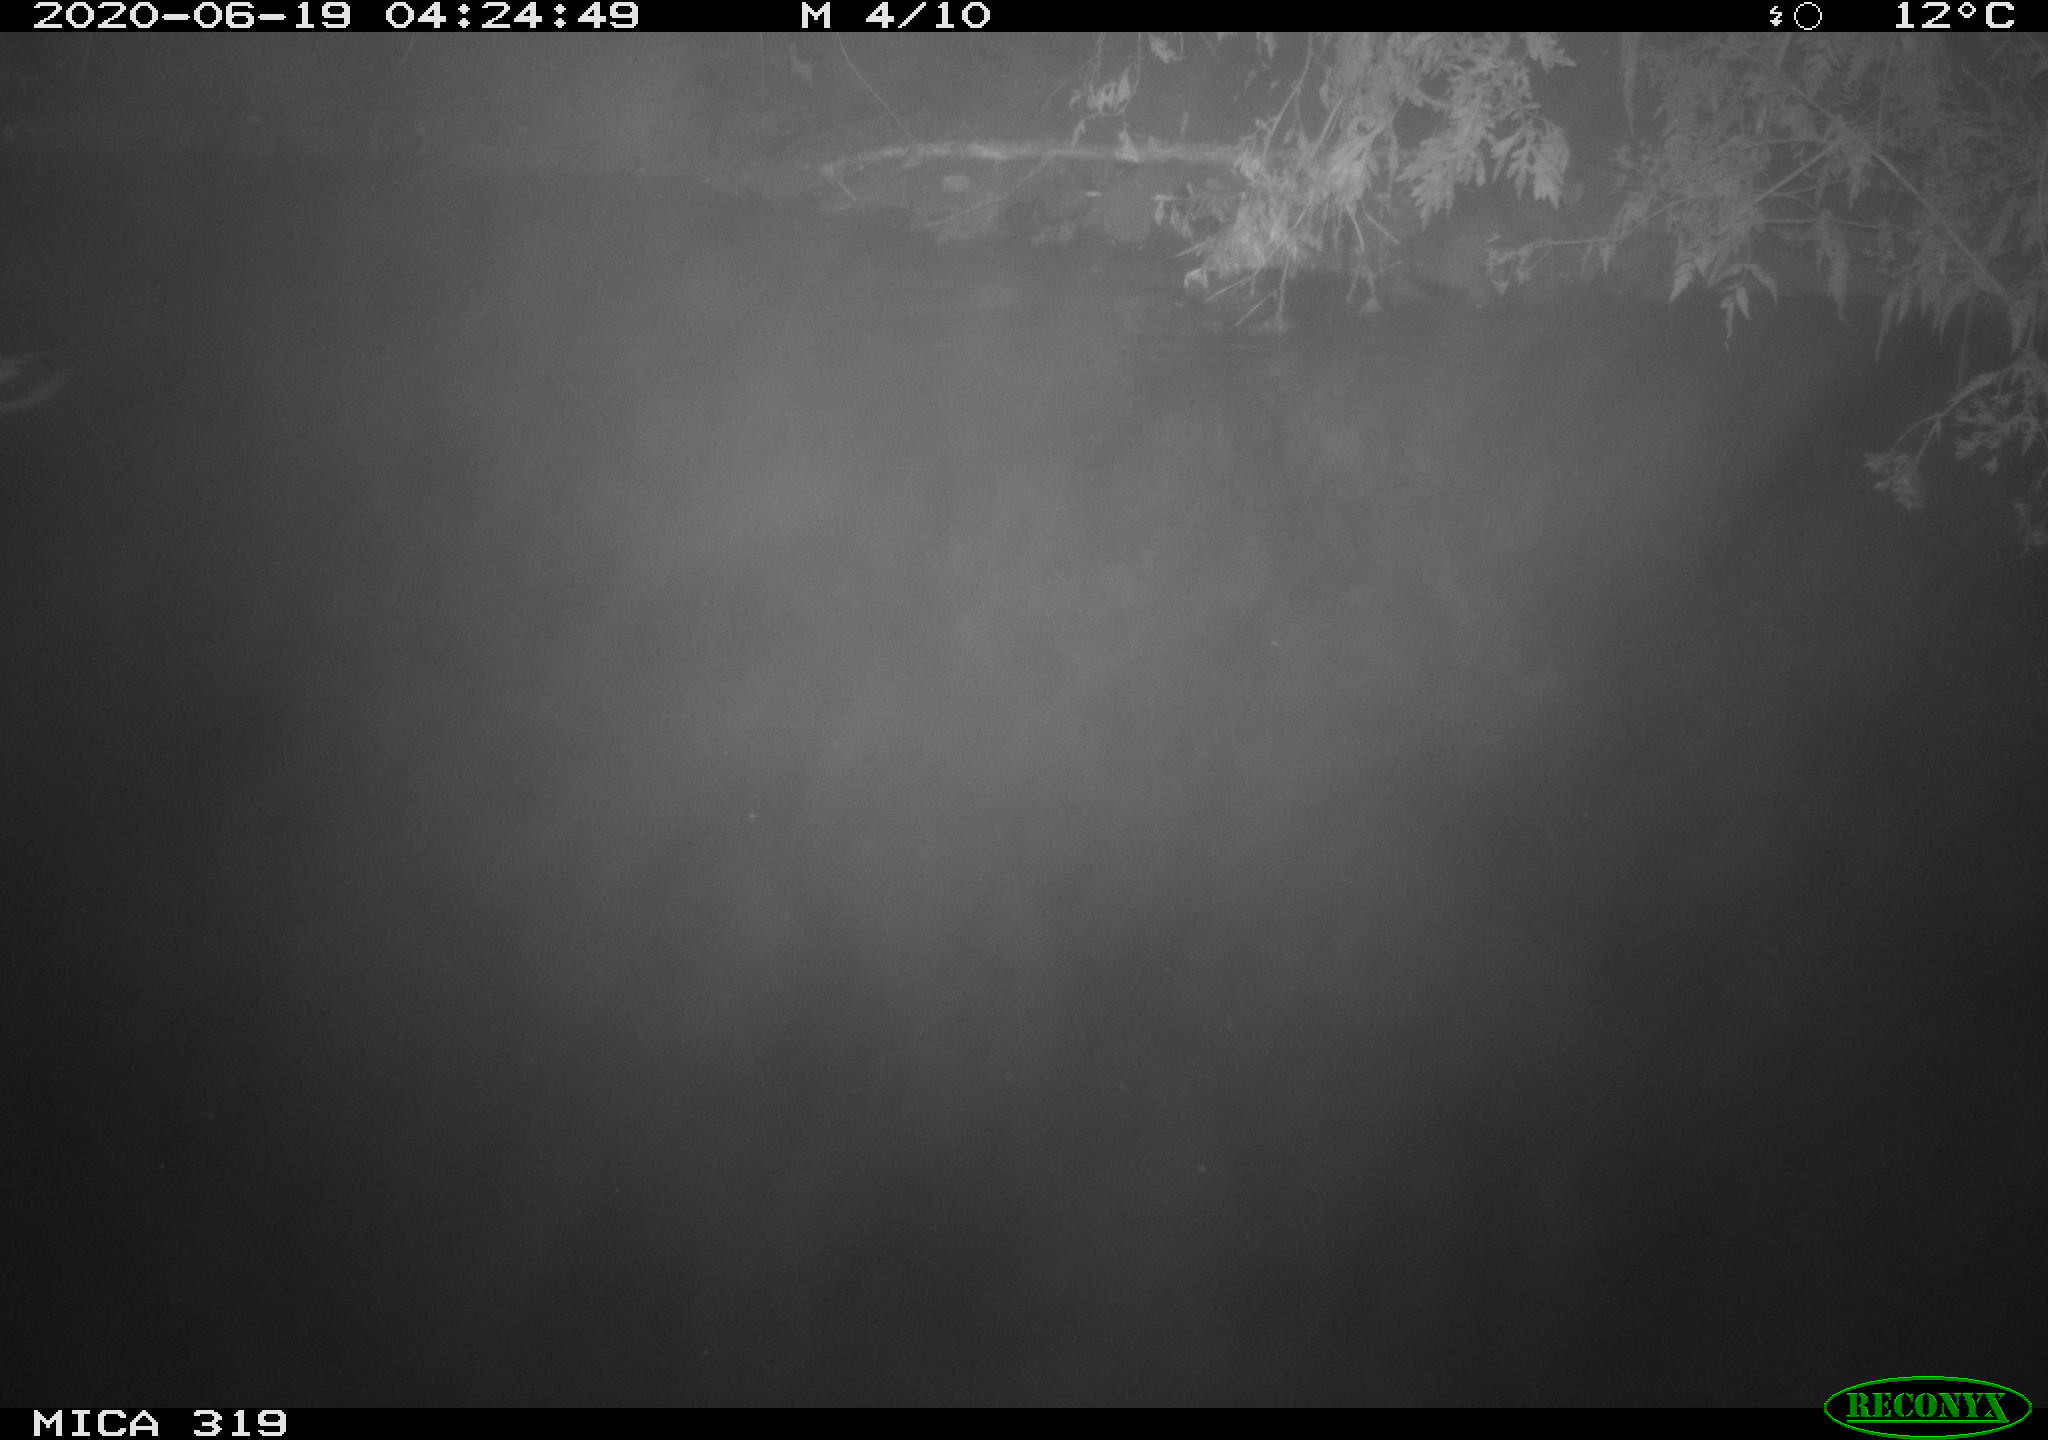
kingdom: Animalia
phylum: Chordata
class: Aves
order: Anseriformes
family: Anatidae
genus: Anas
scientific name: Anas platyrhynchos
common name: Mallard
